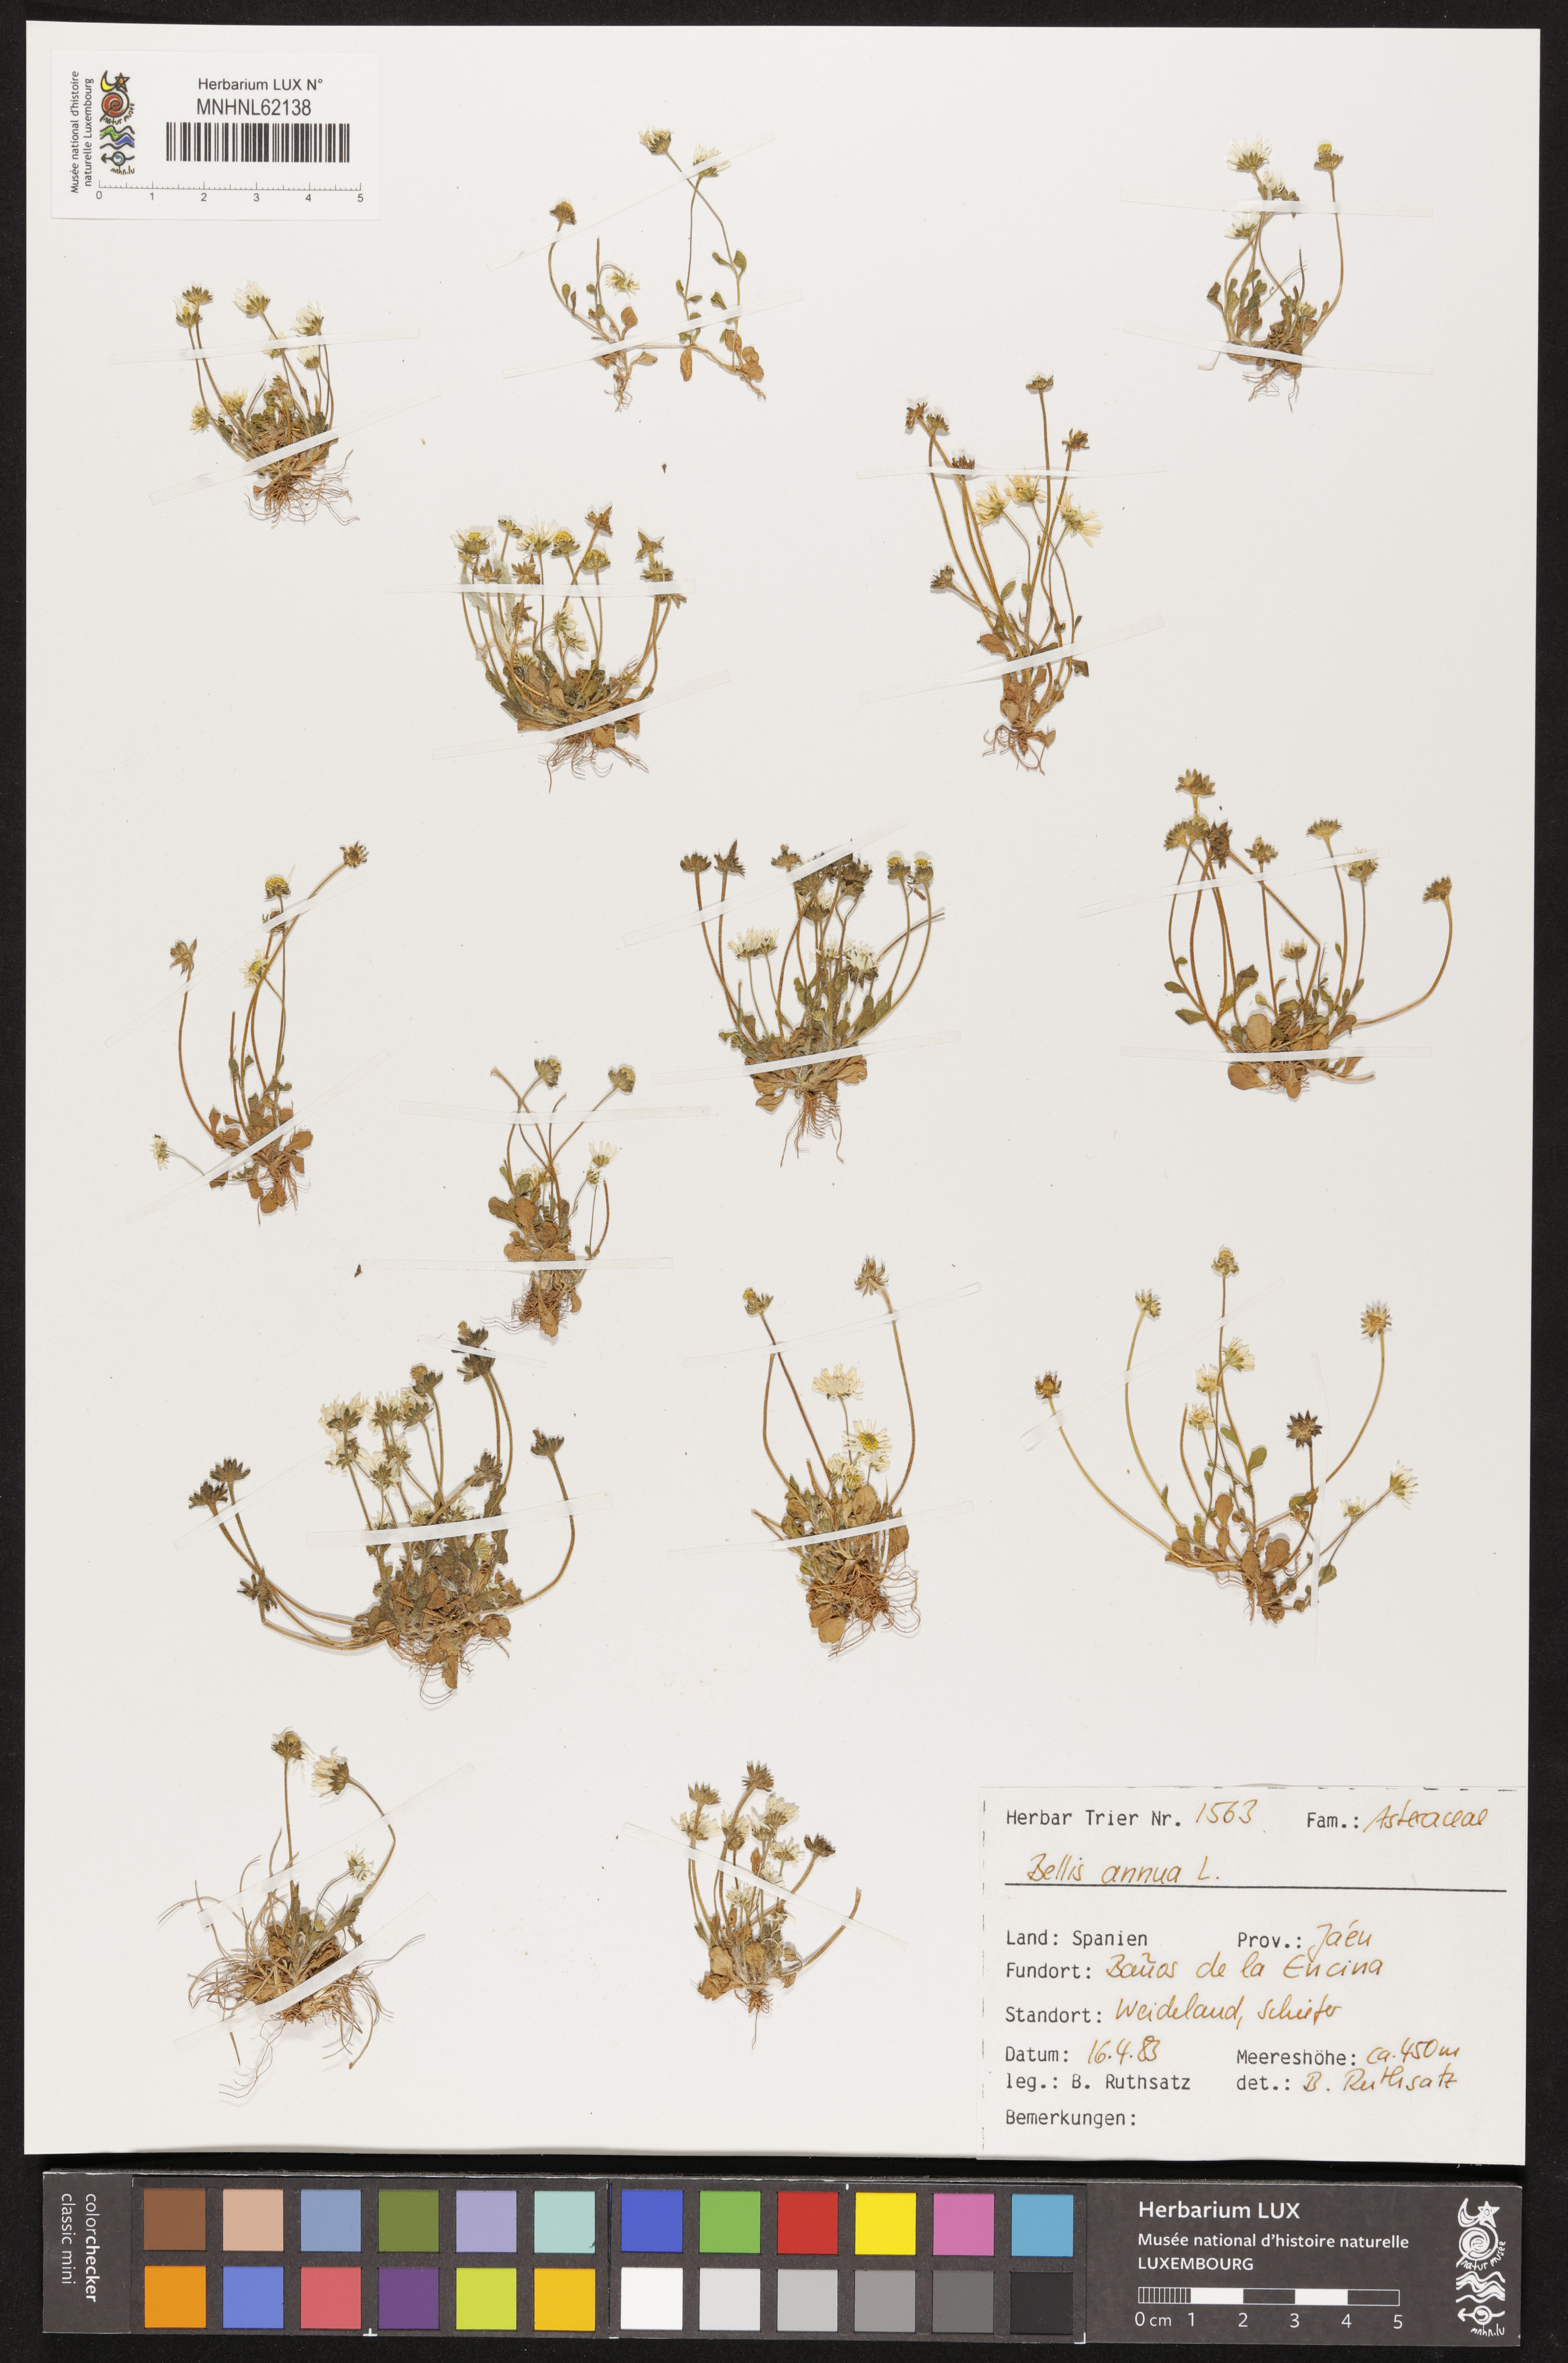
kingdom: Plantae
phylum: Tracheophyta
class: Magnoliopsida
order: Asterales
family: Asteraceae
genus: Bellis
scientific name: Bellis annua
